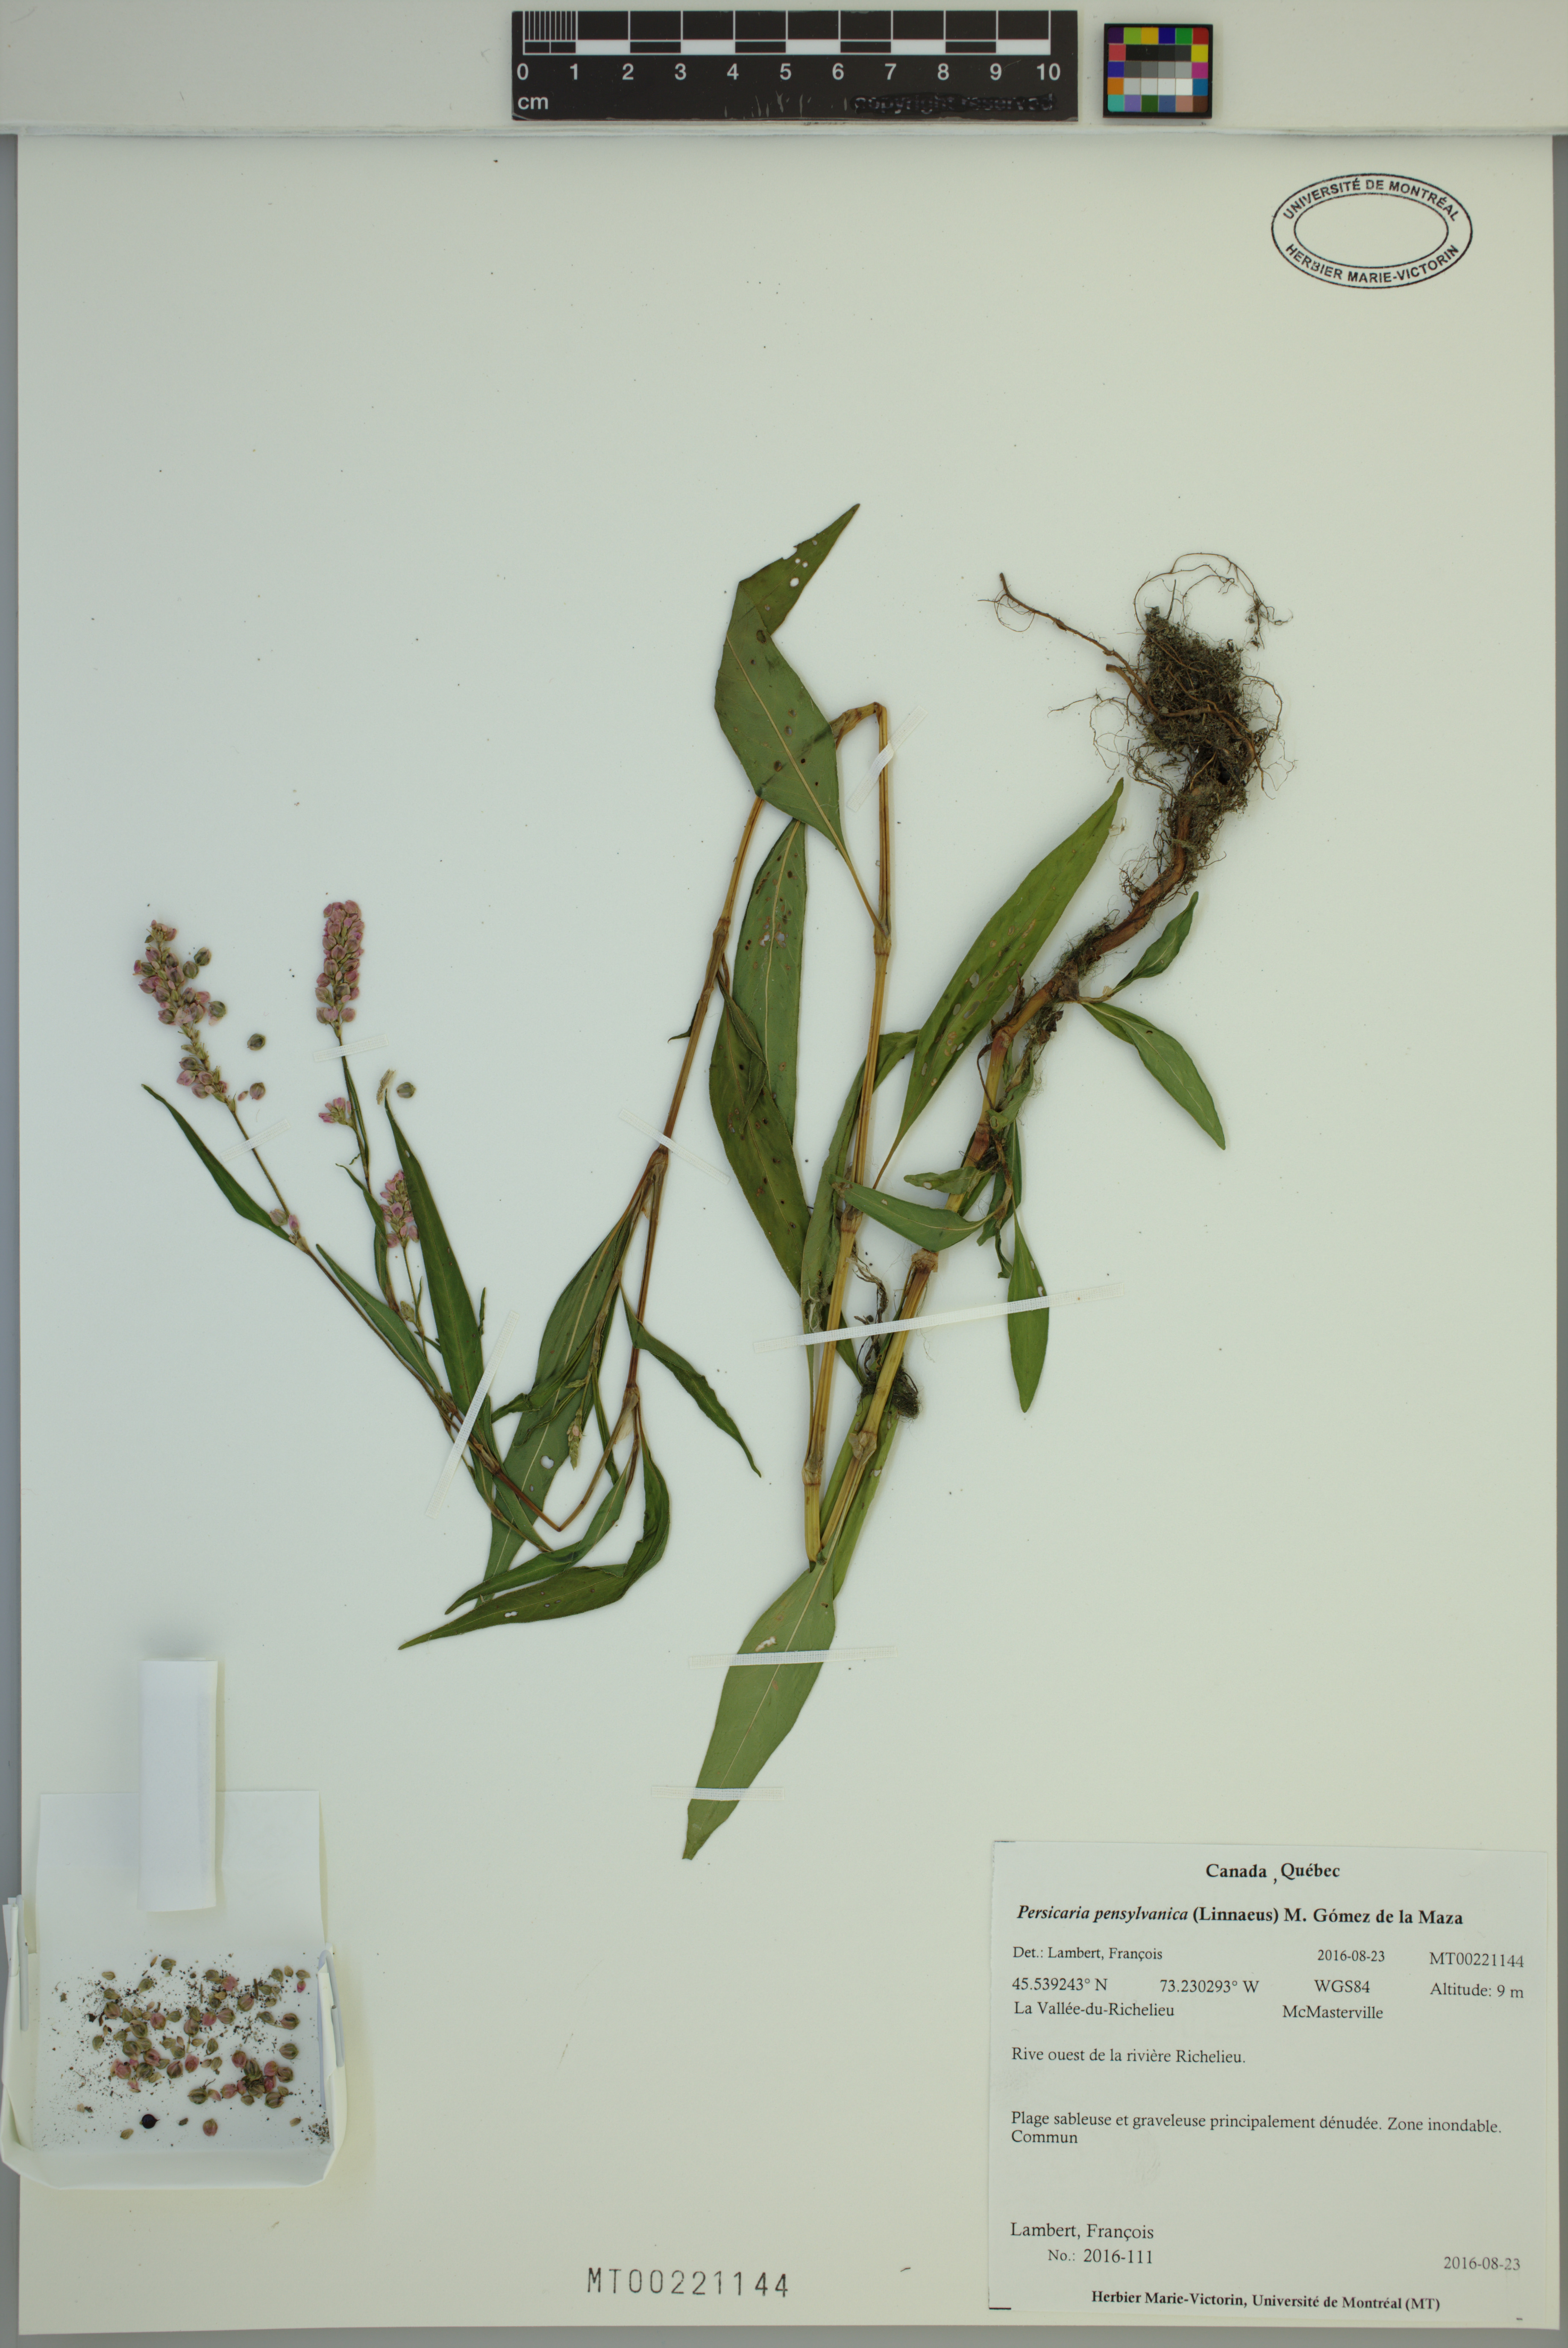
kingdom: Plantae
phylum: Tracheophyta
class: Magnoliopsida
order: Caryophyllales
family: Polygonaceae
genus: Persicaria
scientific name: Persicaria pensylvanica
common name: Pinkweed
